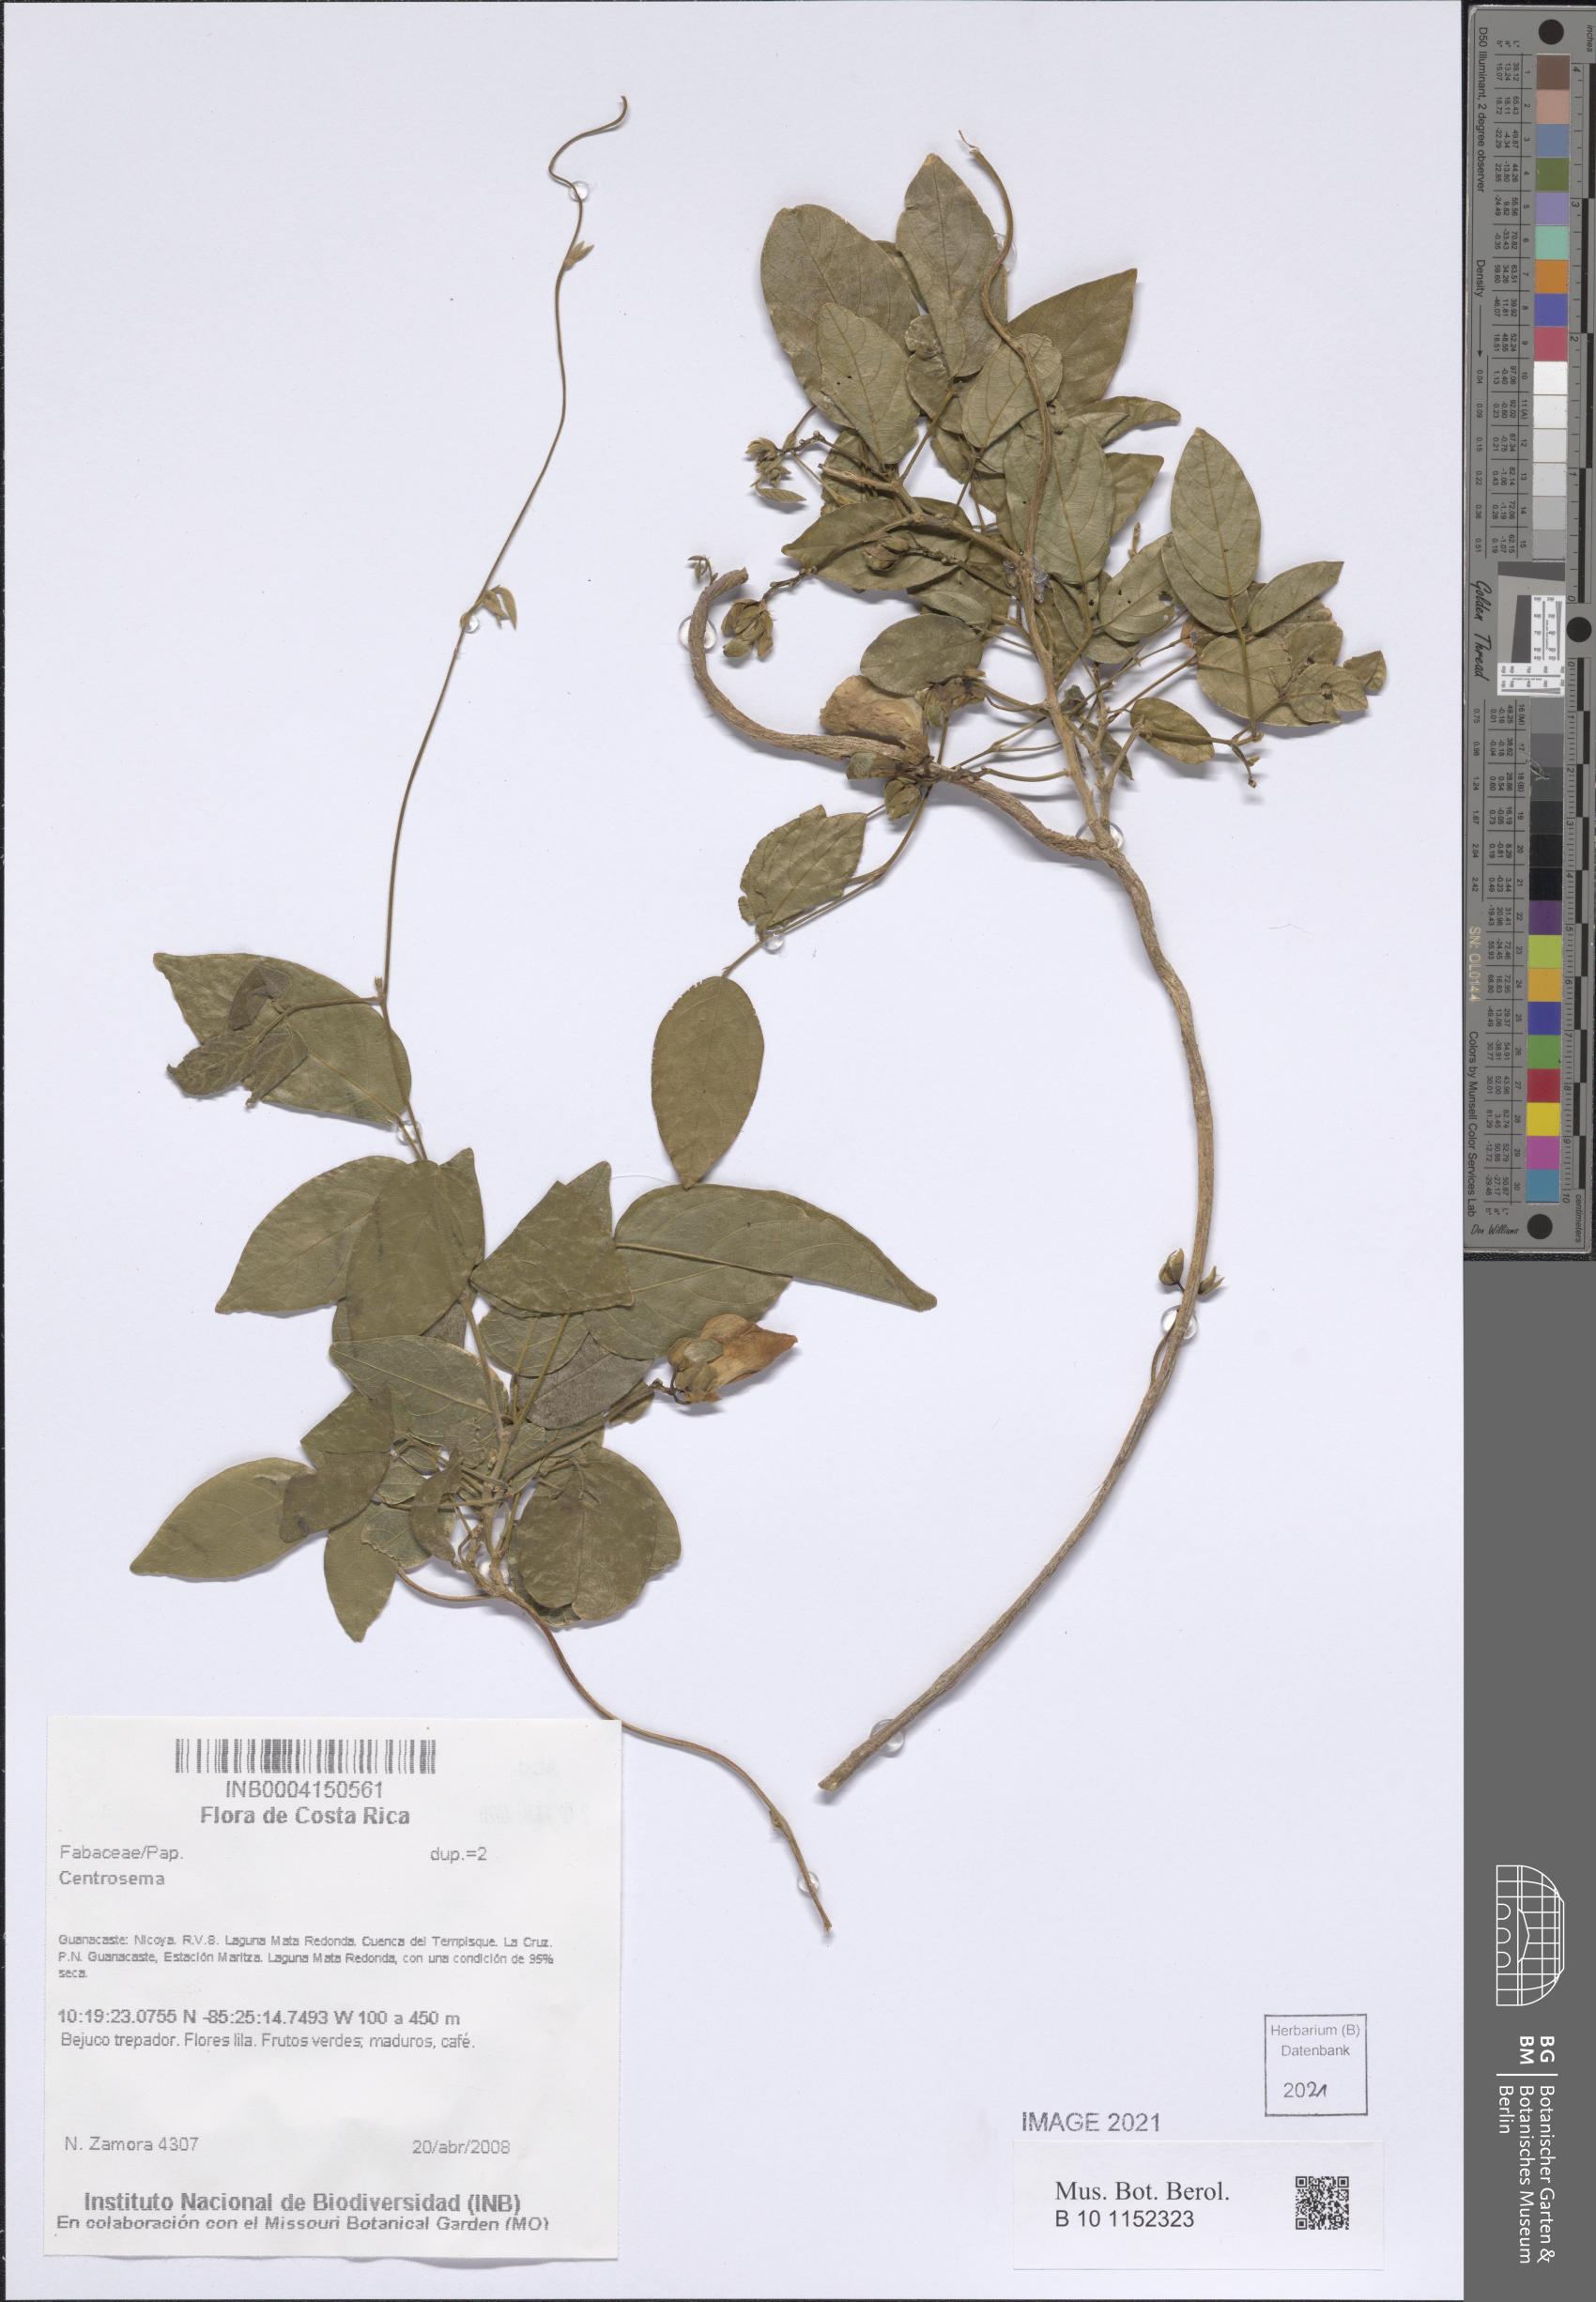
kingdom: Plantae
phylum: Tracheophyta
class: Magnoliopsida
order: Fabales
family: Fabaceae
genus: Centrosema
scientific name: Centrosema
